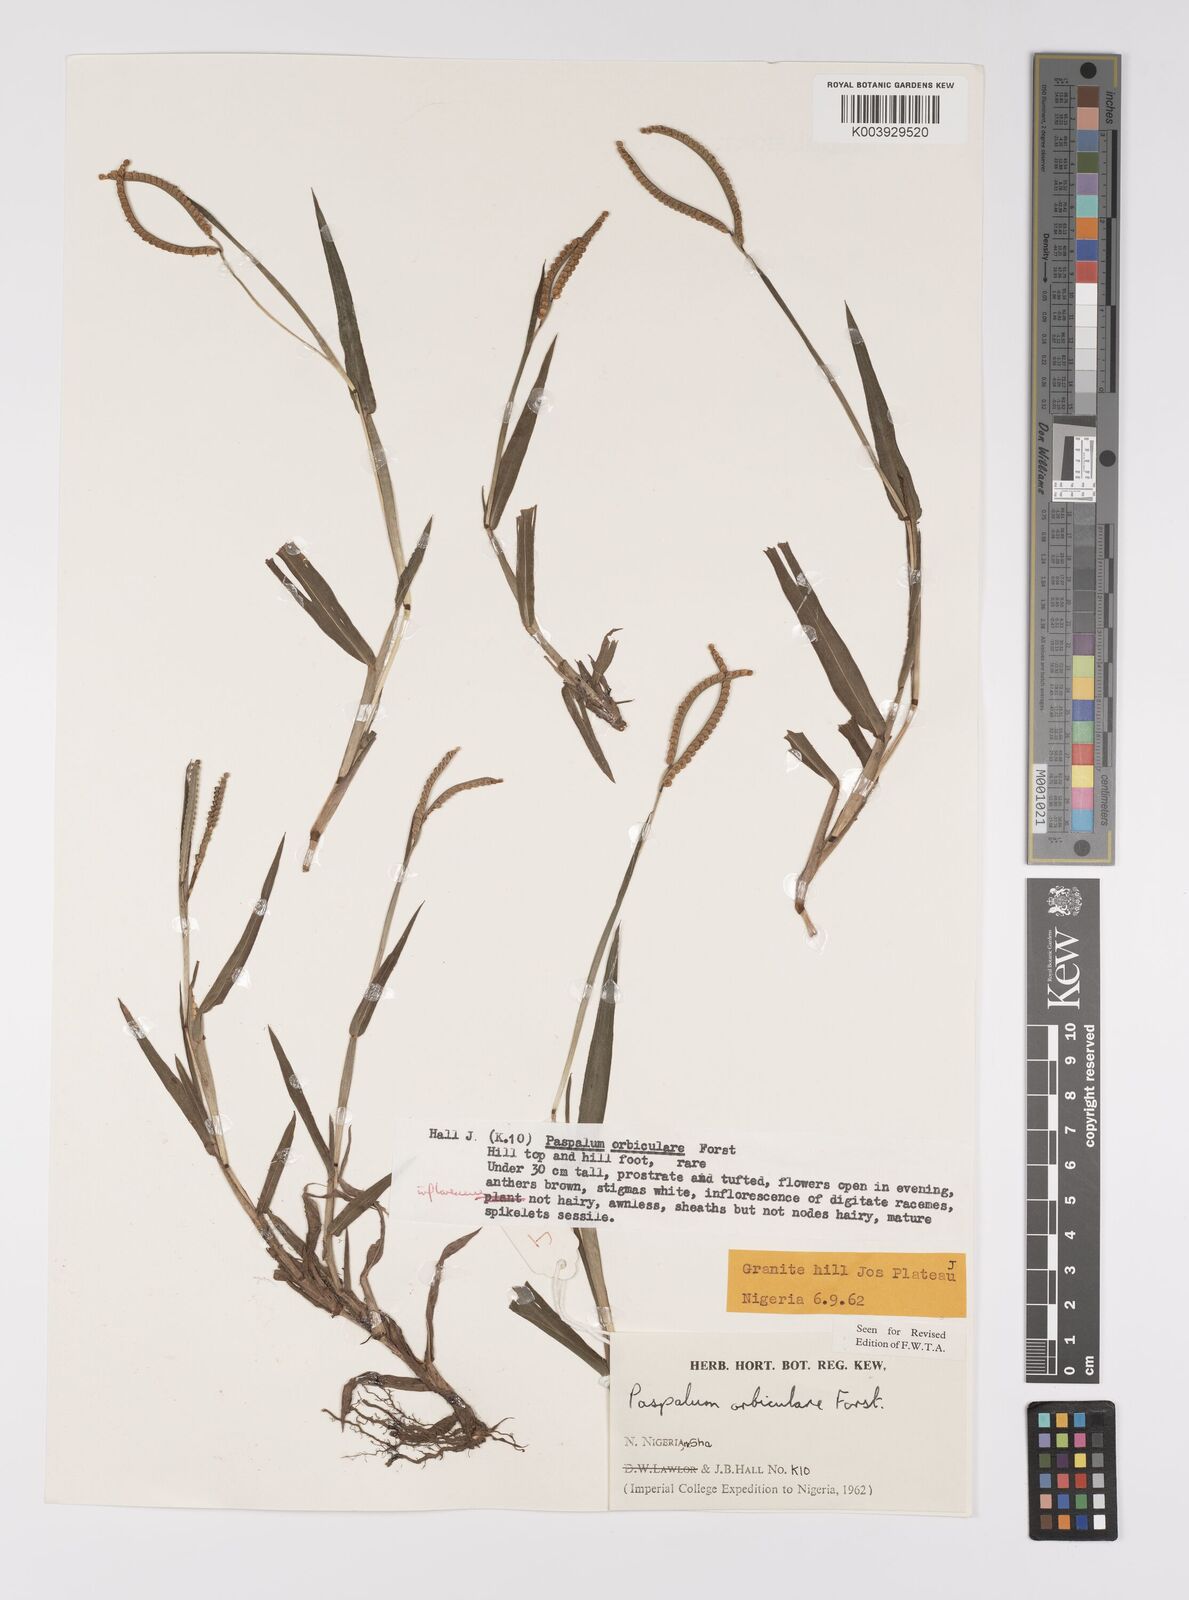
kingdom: Plantae
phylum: Tracheophyta
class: Liliopsida
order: Poales
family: Poaceae
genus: Paspalum
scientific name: Paspalum scrobiculatum
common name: Kodo millet
